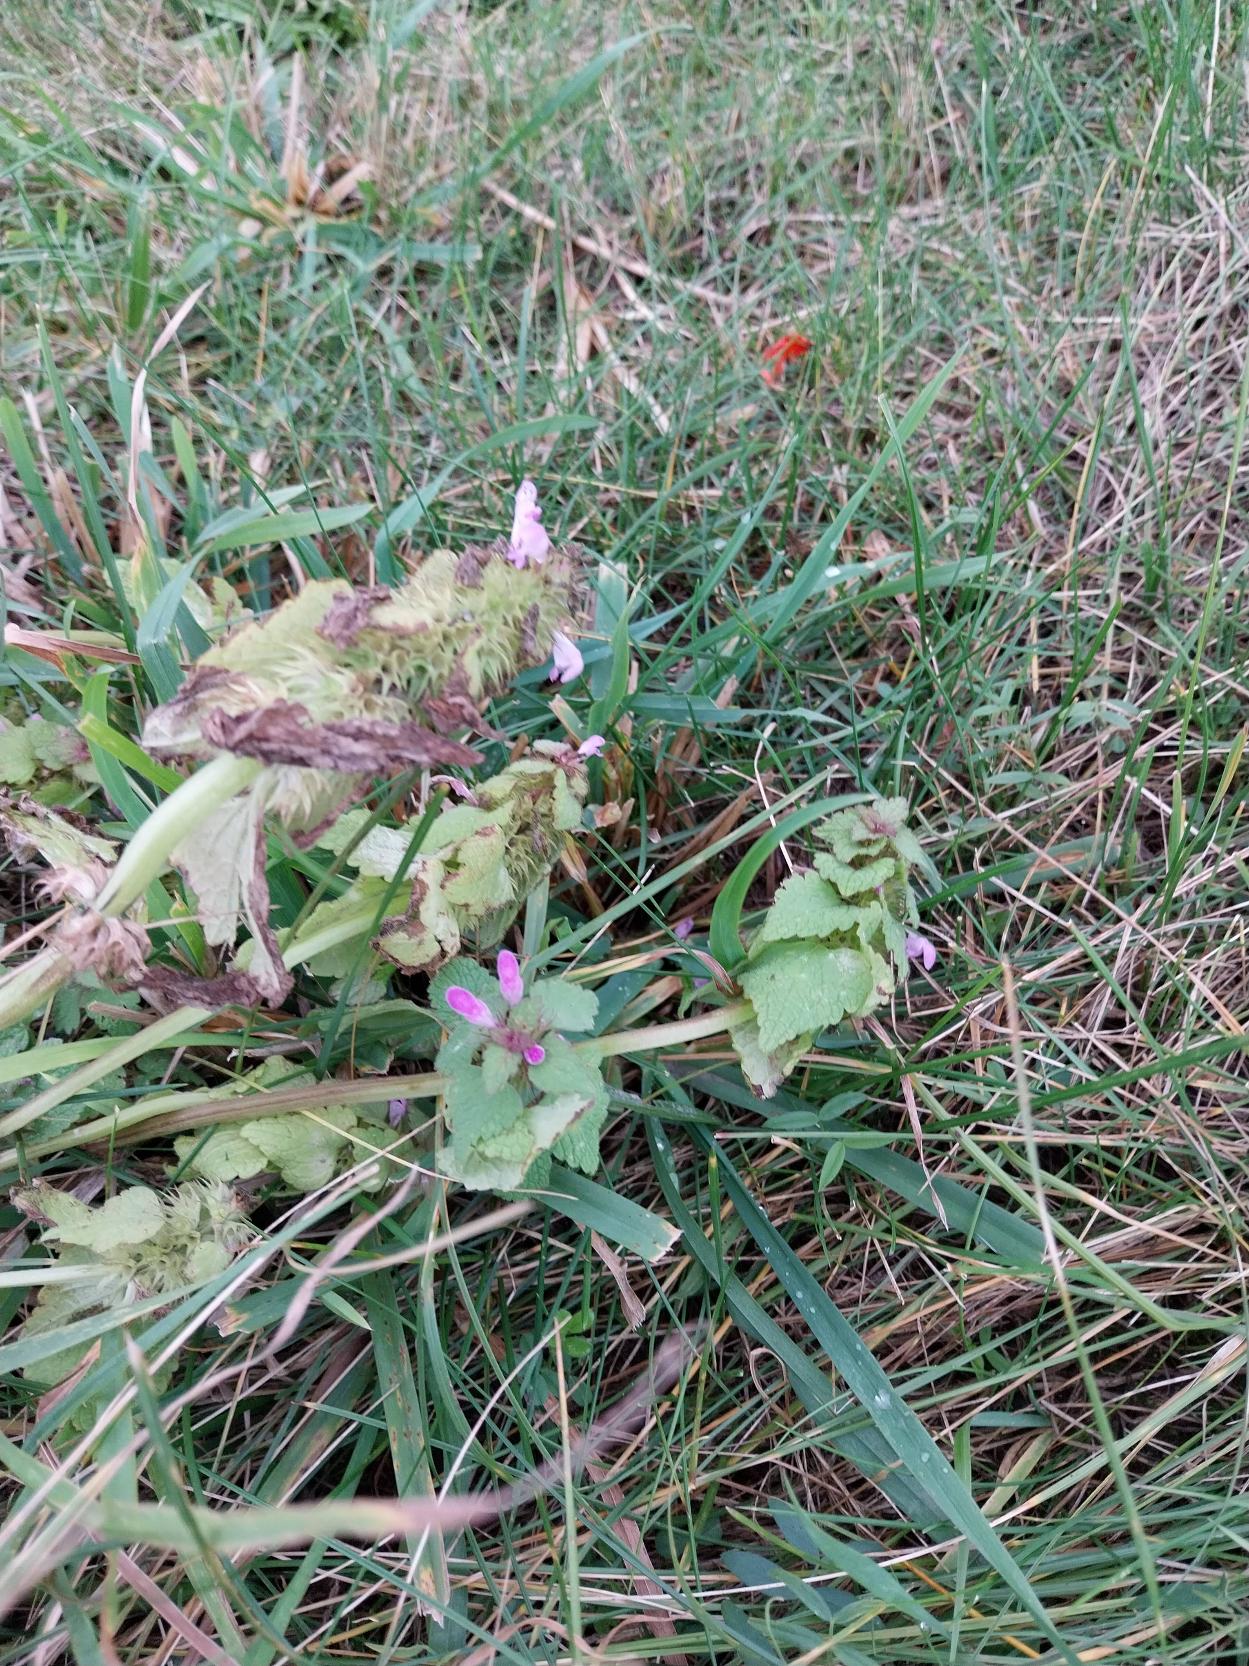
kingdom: Plantae
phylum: Tracheophyta
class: Magnoliopsida
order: Lamiales
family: Lamiaceae
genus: Lamium
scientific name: Lamium purpureum
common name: Rød tvetand
